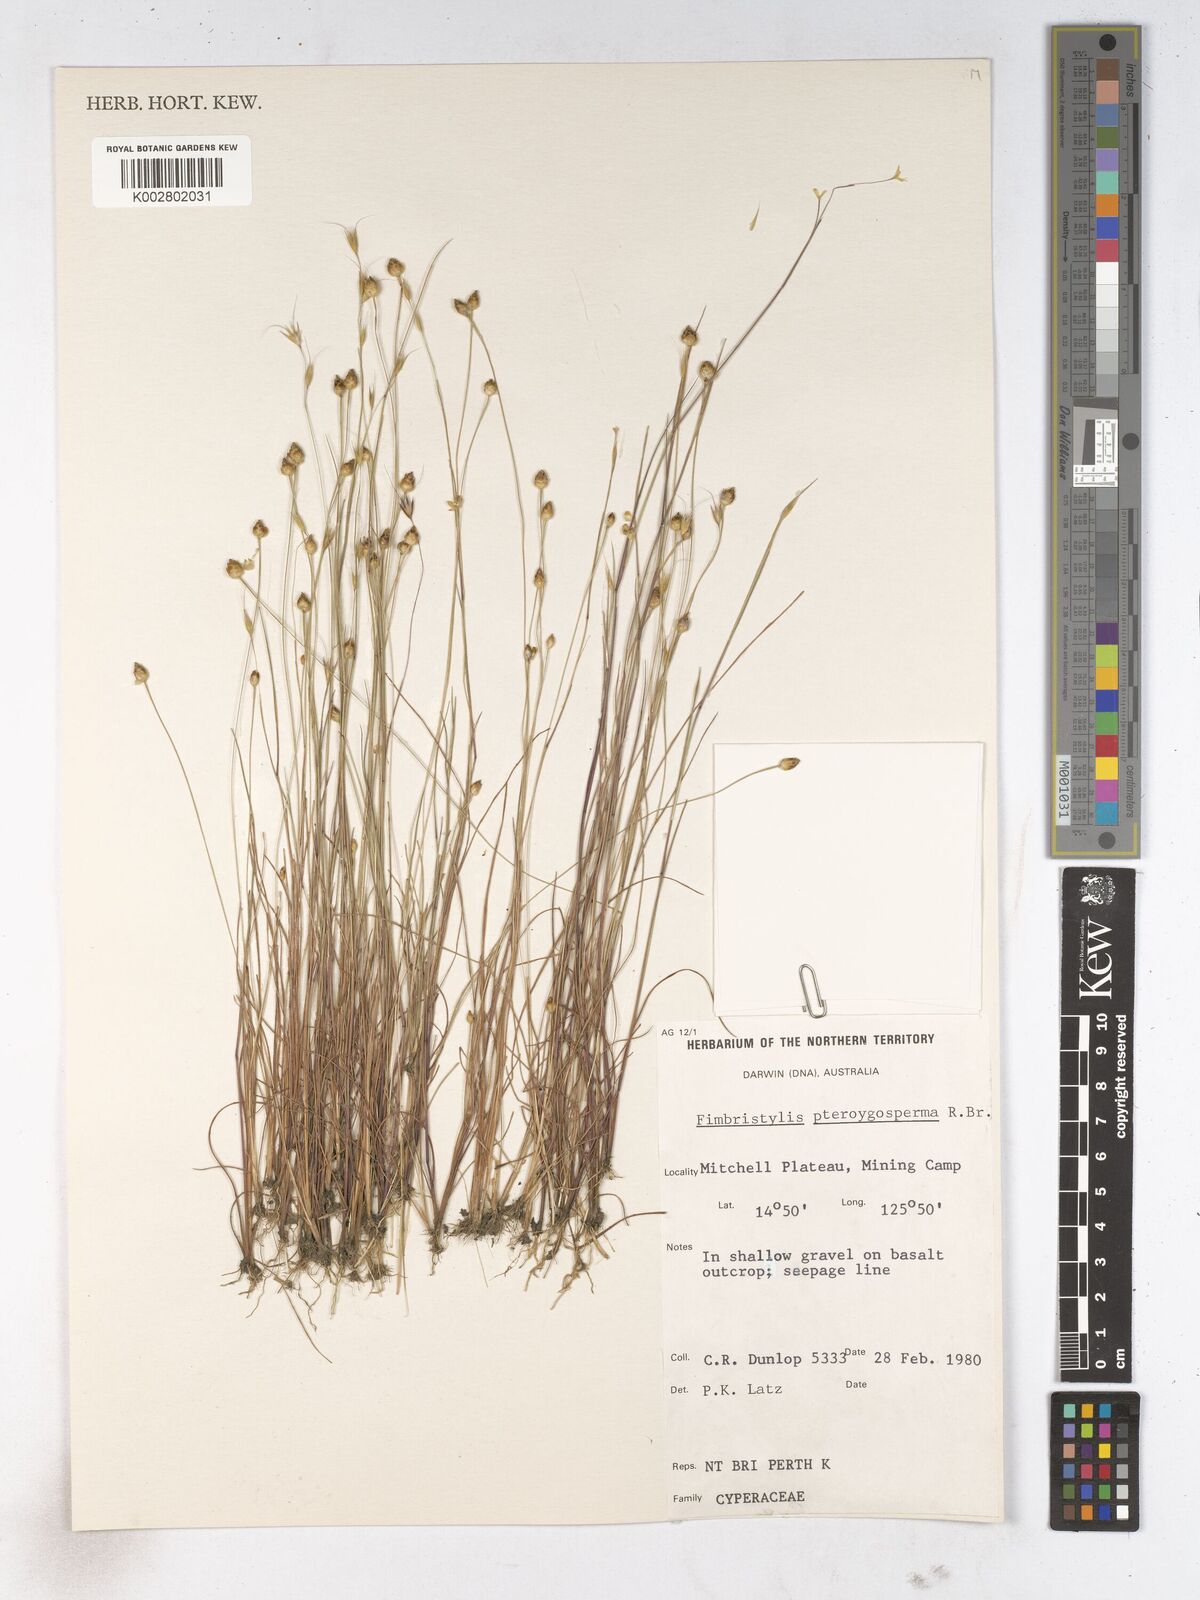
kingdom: Plantae
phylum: Tracheophyta
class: Liliopsida
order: Poales
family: Cyperaceae
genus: Fimbristylis
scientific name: Fimbristylis pterigosperma
